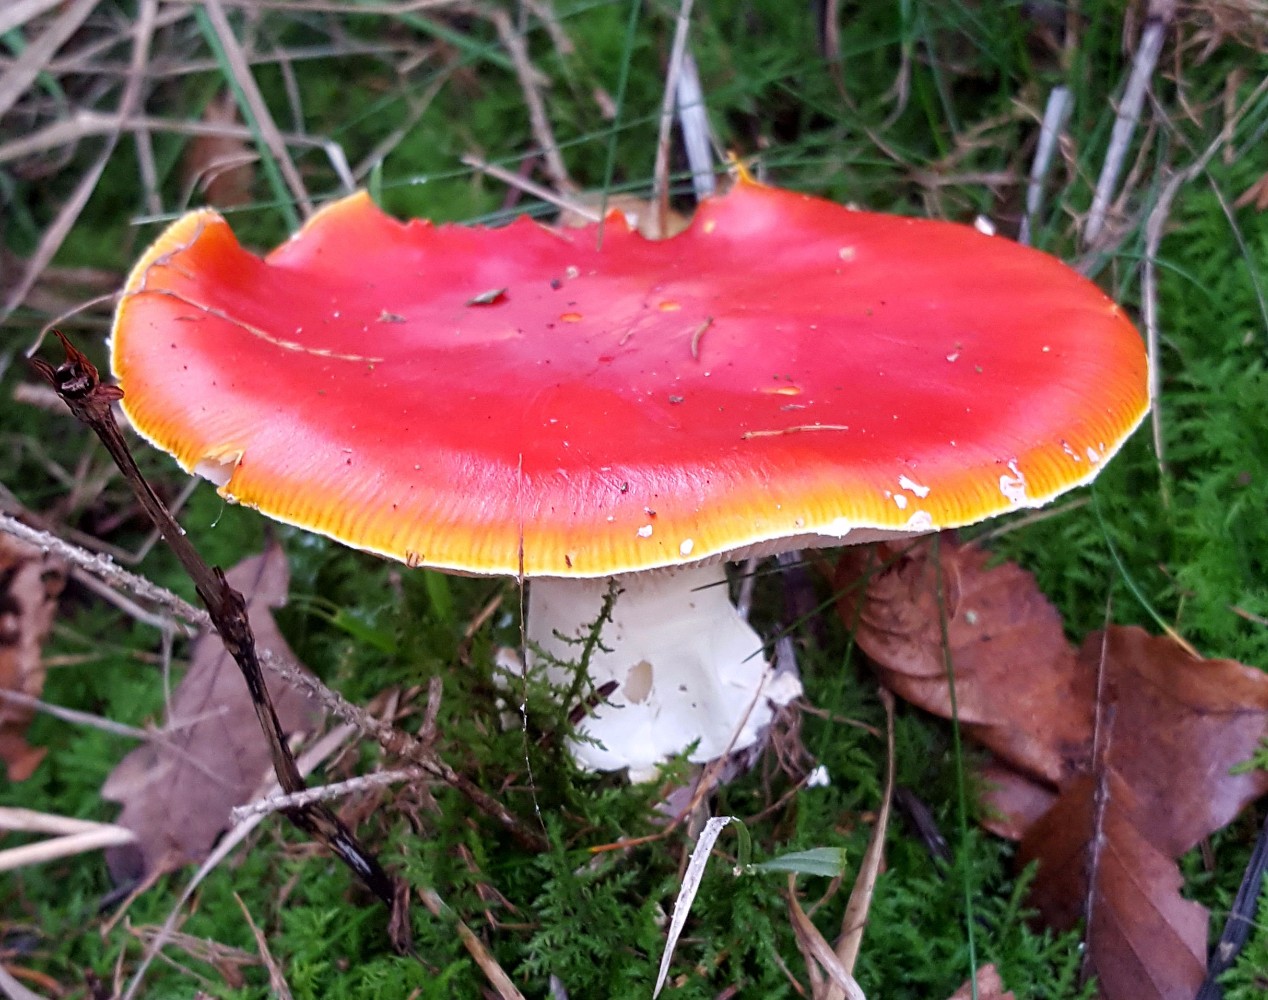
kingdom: Fungi
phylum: Basidiomycota
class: Agaricomycetes
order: Agaricales
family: Amanitaceae
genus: Amanita
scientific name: Amanita muscaria
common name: rød fluesvamp
